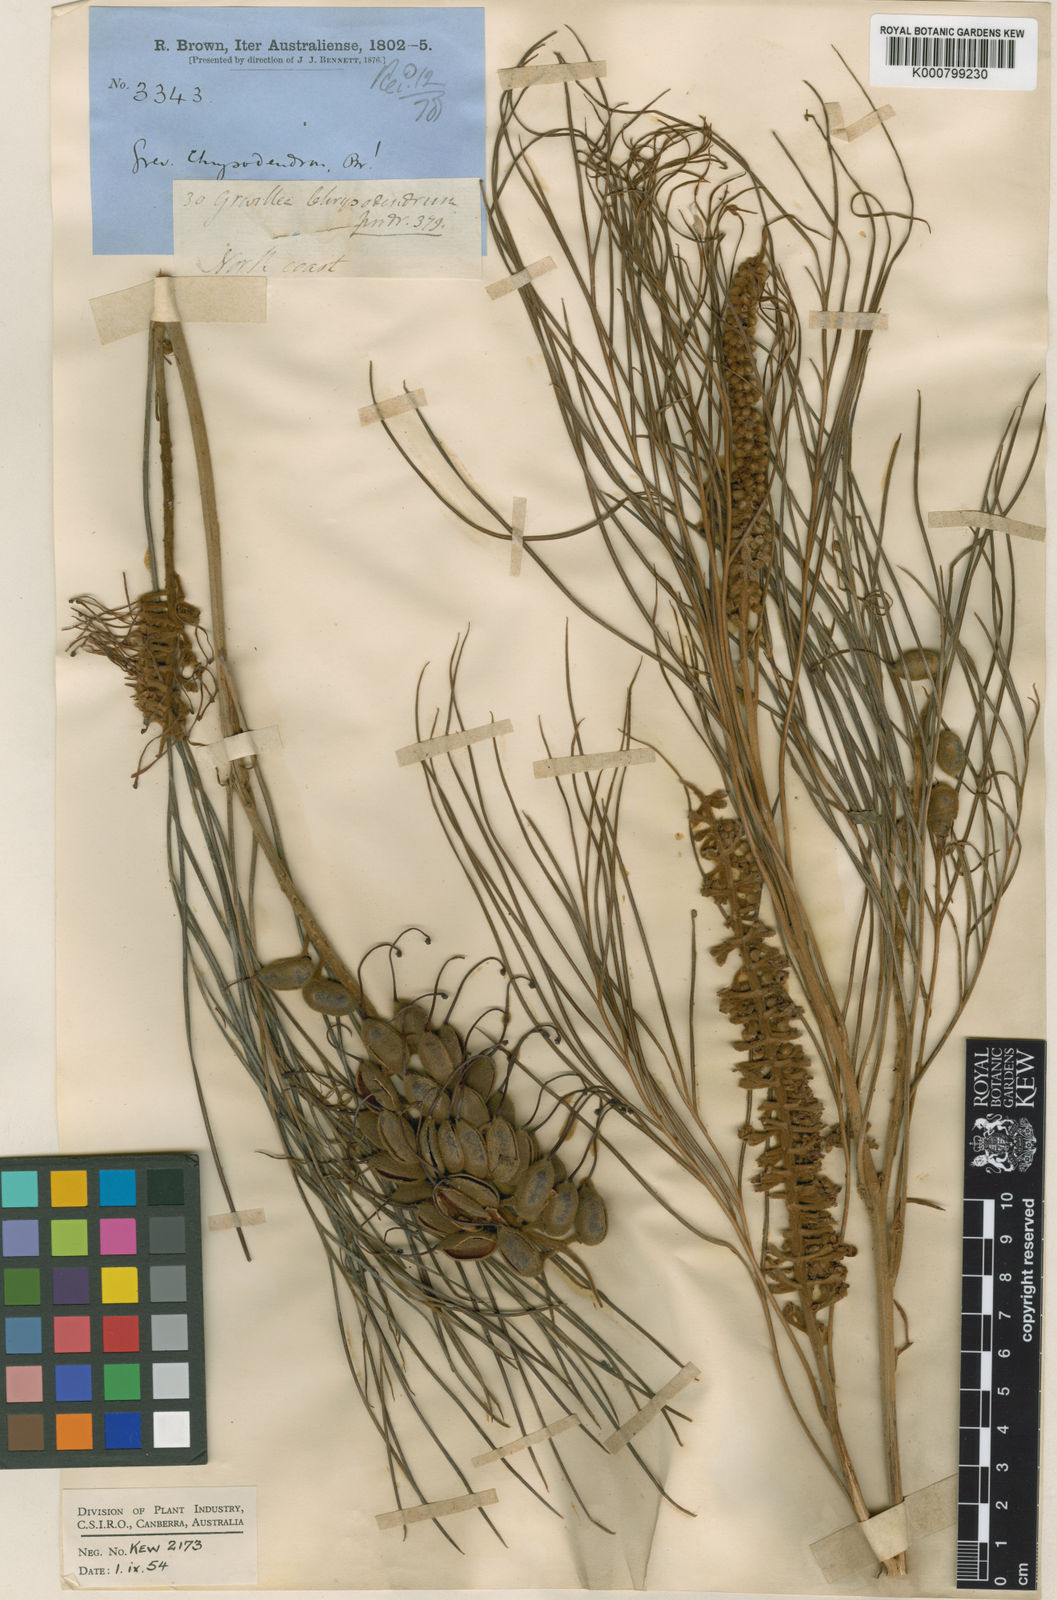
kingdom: Plantae
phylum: Tracheophyta
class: Magnoliopsida
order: Proteales
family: Proteaceae
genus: Grevillea
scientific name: Grevillea pteridifolia
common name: Golden grevillea
